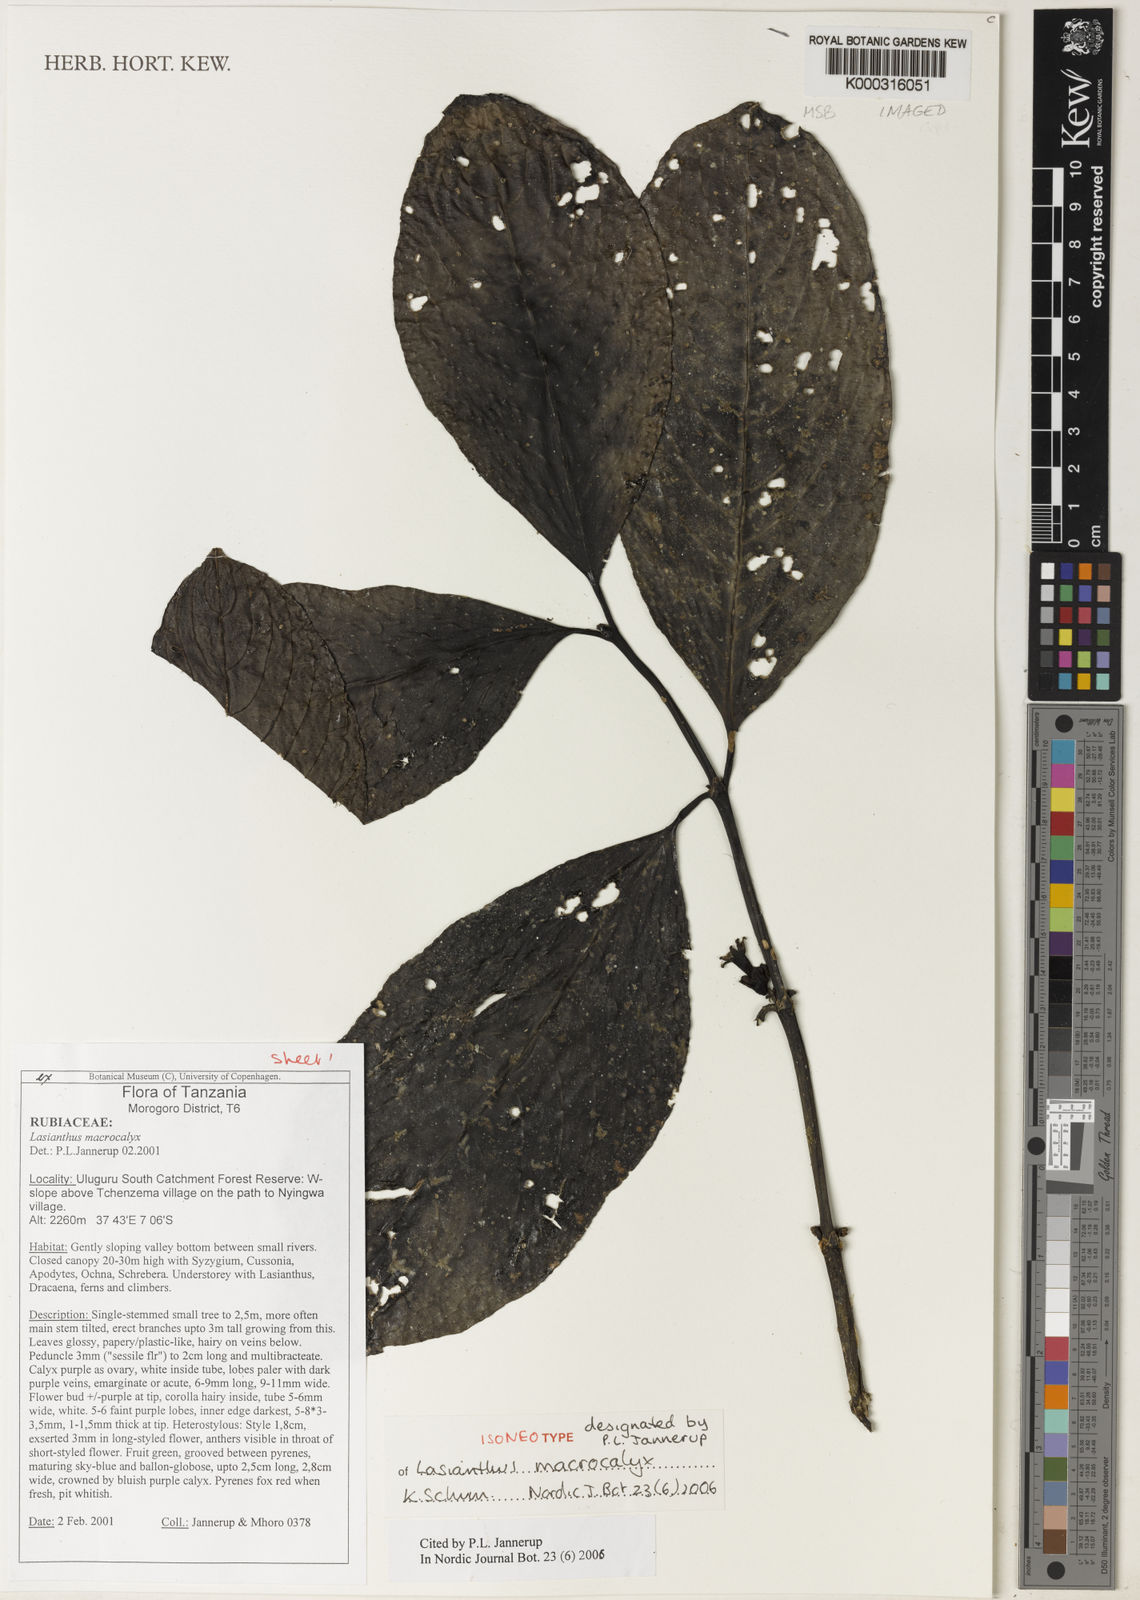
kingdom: Plantae
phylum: Tracheophyta
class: Magnoliopsida
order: Gentianales
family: Rubiaceae
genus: Lasianthus
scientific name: Lasianthus macrocalyx
